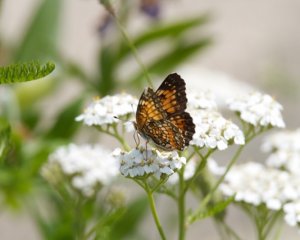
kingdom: Animalia
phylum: Arthropoda
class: Insecta
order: Lepidoptera
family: Nymphalidae
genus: Chlosyne
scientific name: Chlosyne harrisii
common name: Harris's Checkerspot
